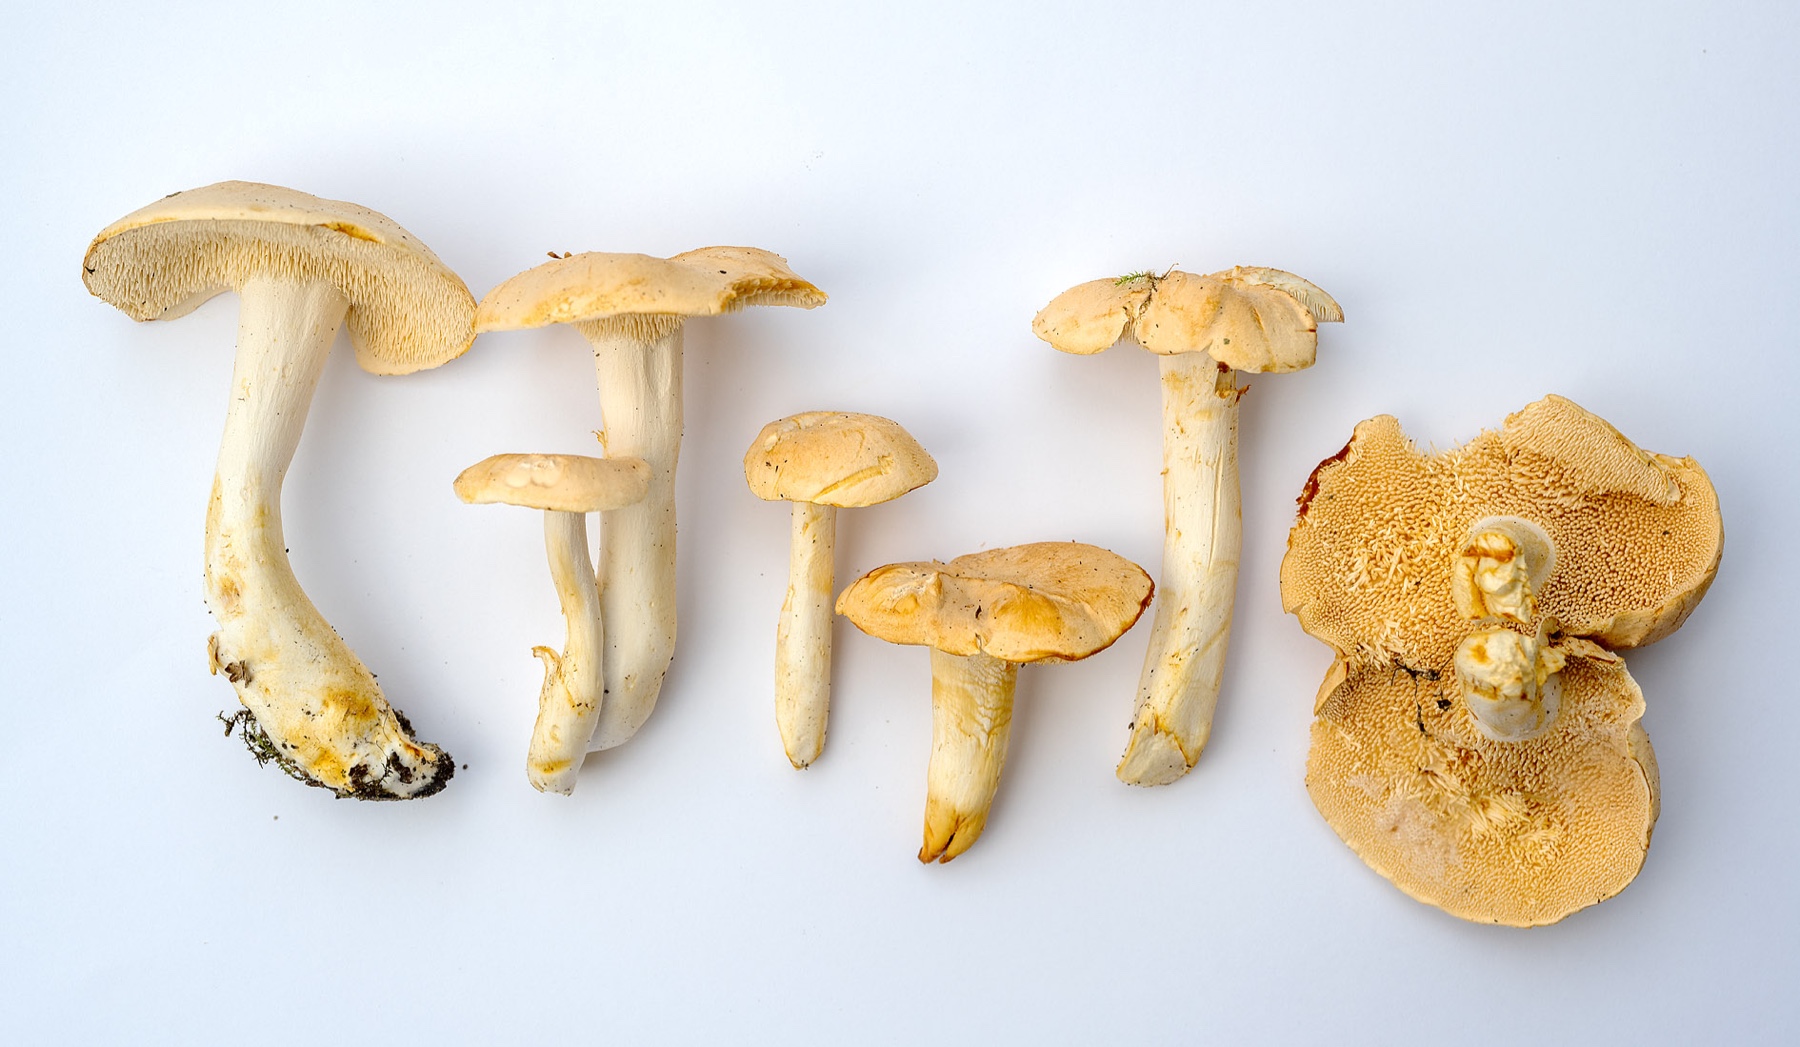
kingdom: Fungi
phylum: Basidiomycota
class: Agaricomycetes
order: Cantharellales
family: Hydnaceae
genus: Hydnum
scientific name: Hydnum ibericum
